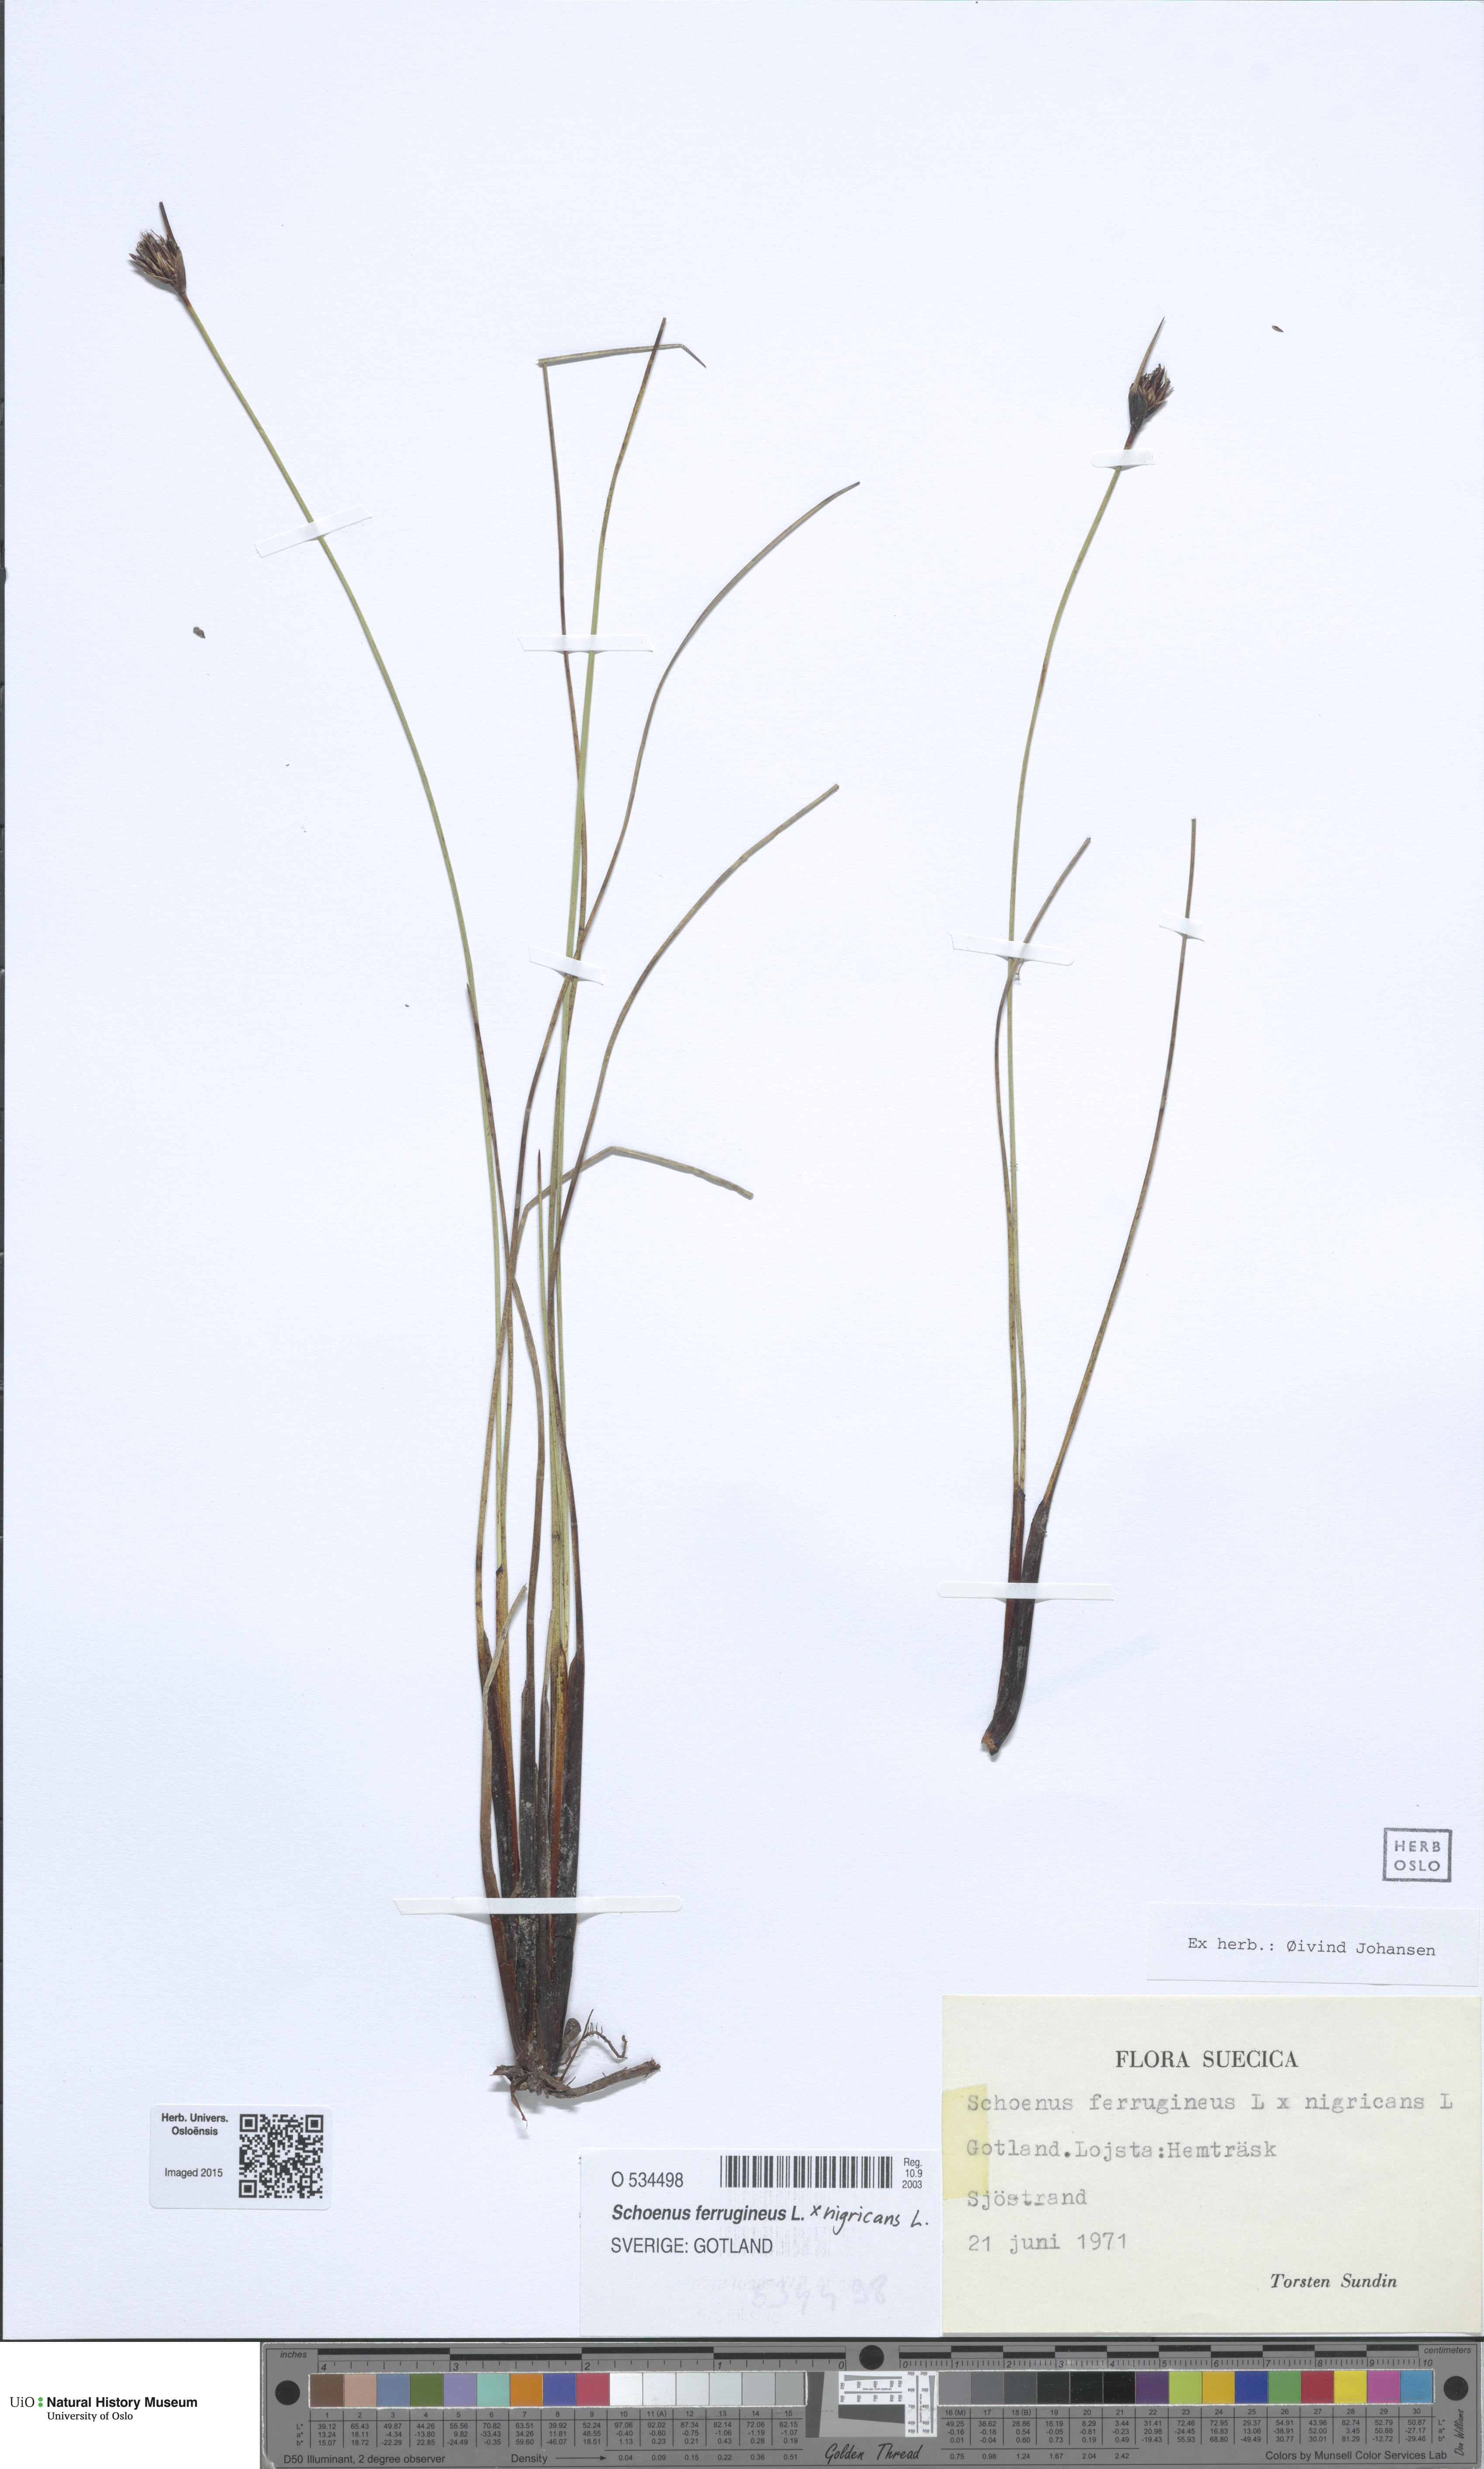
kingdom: Plantae
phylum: Tracheophyta
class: Liliopsida
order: Poales
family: Cyperaceae
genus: Schoenus
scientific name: Schoenus
